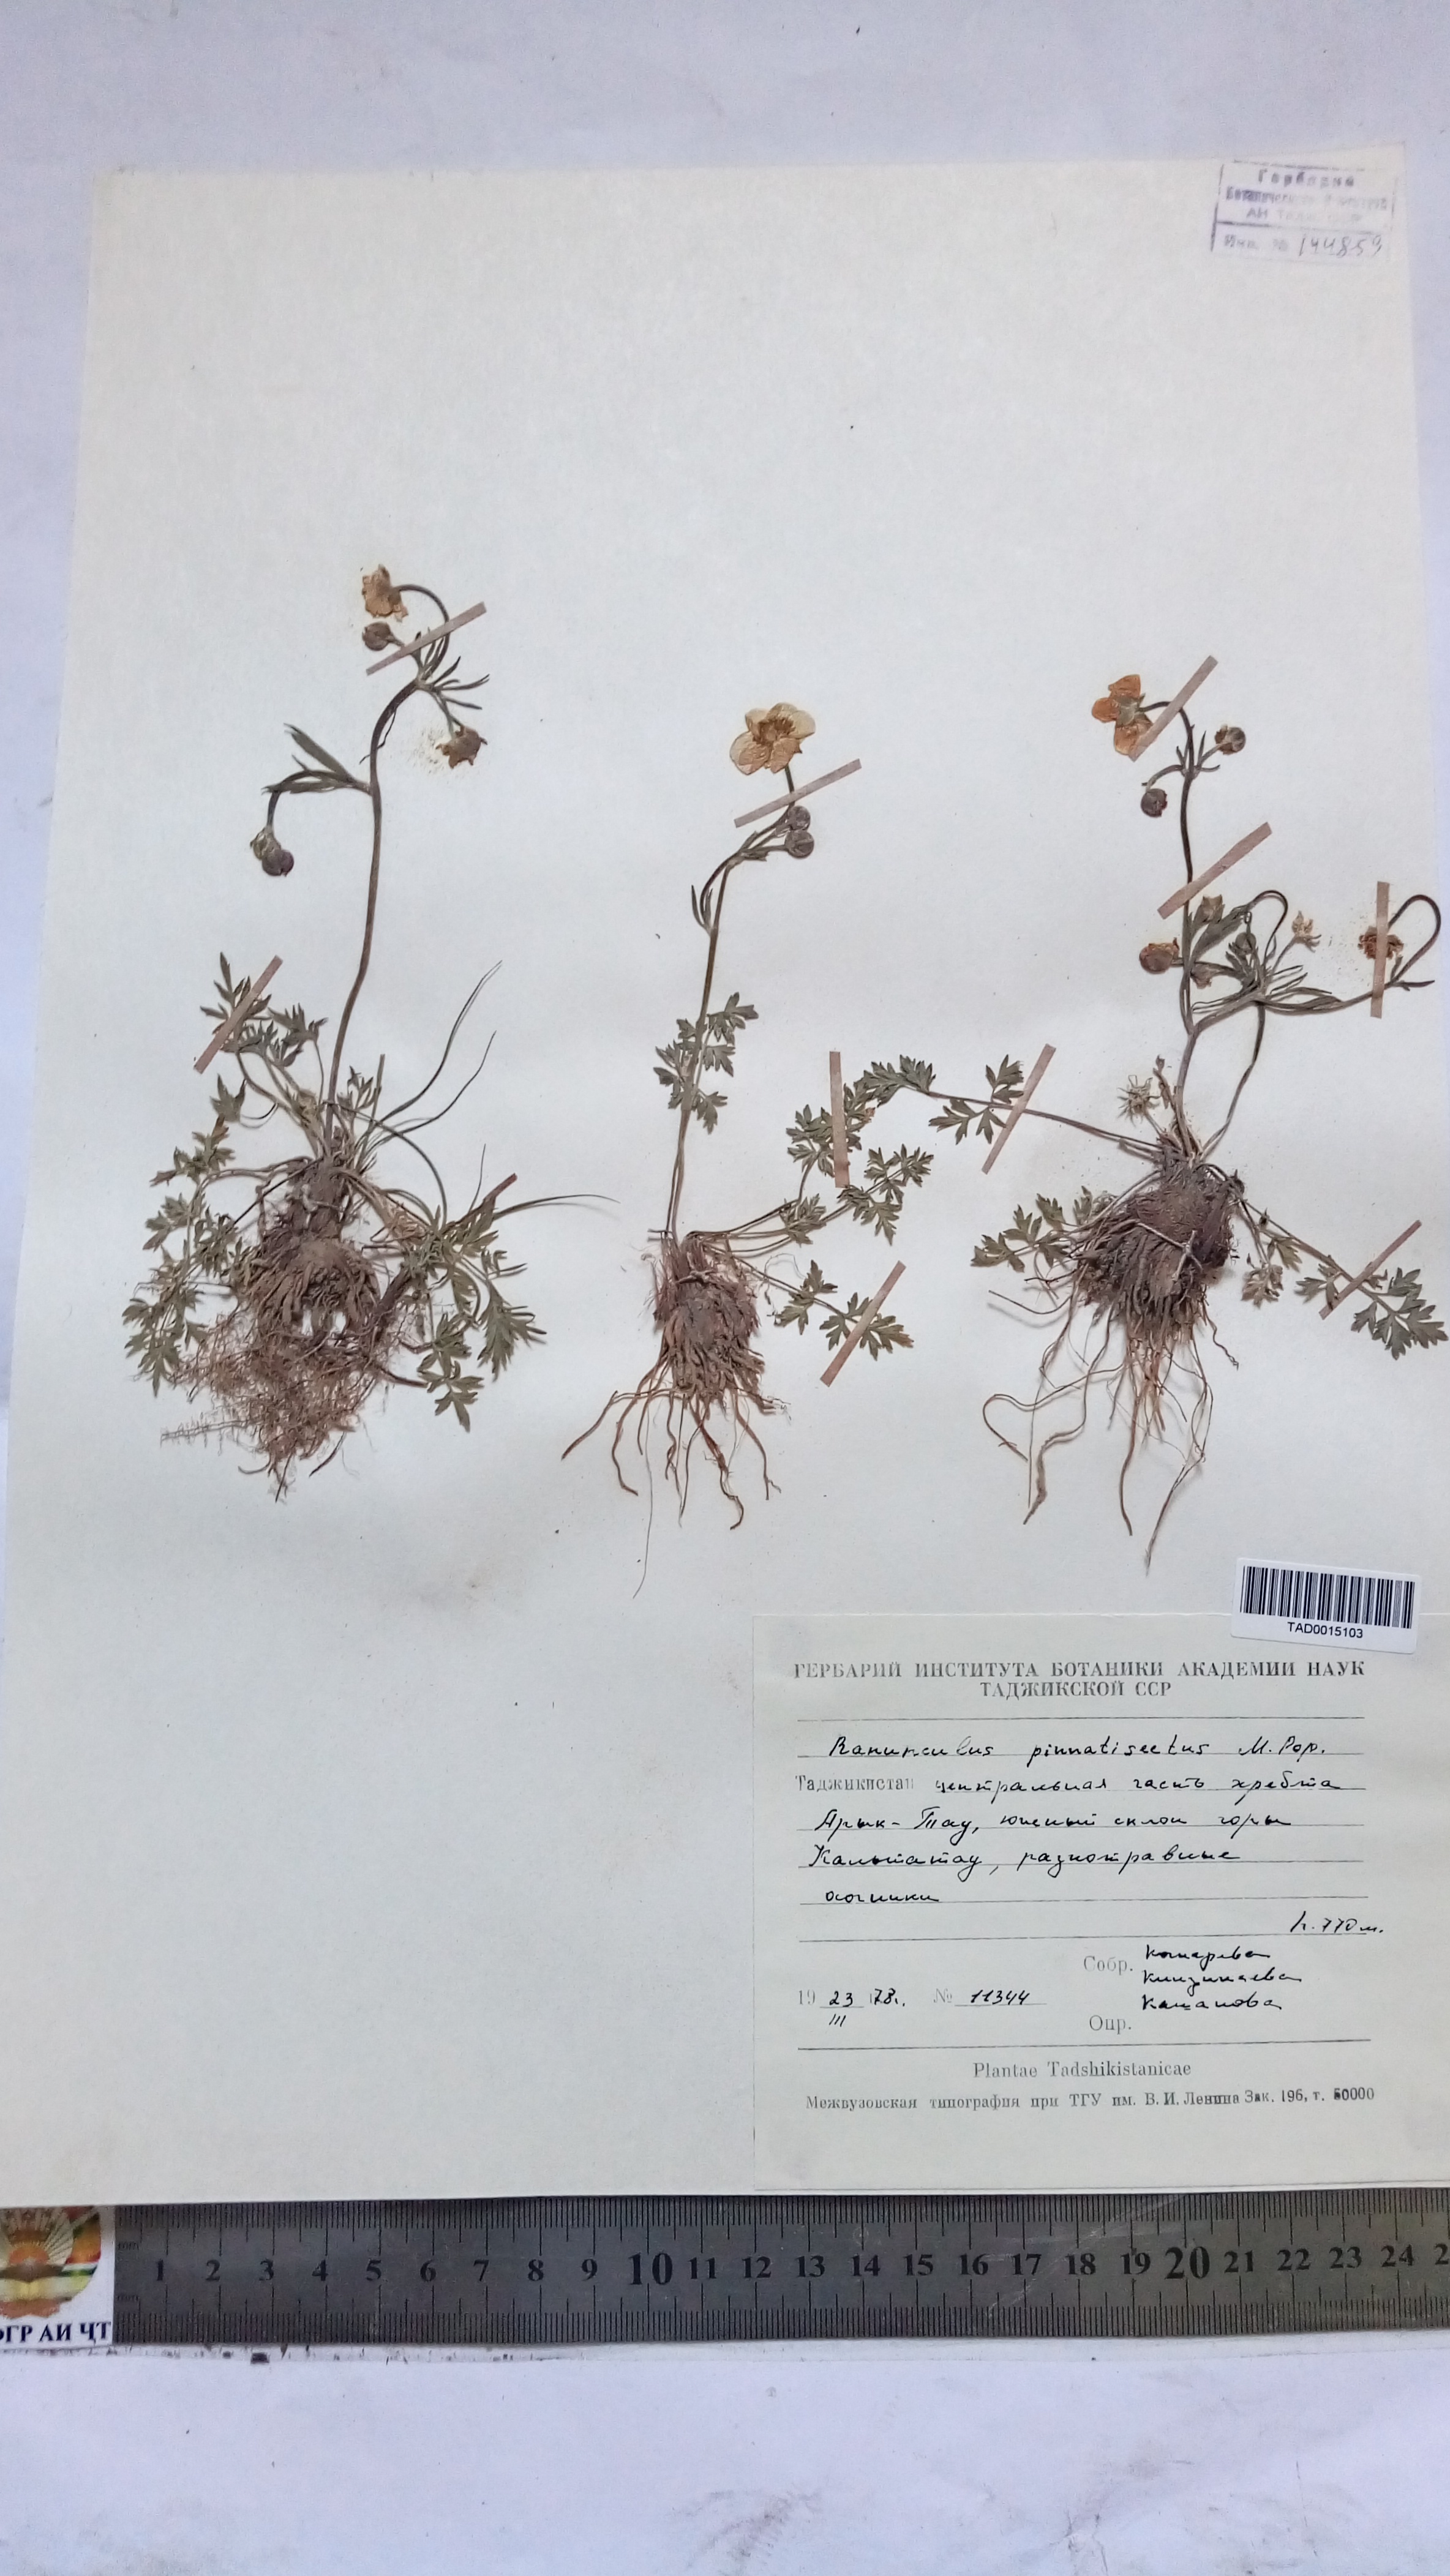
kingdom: Plantae
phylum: Tracheophyta
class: Magnoliopsida
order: Ranunculales
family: Ranunculaceae
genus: Ranunculus
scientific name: Ranunculus pinnatisectus
